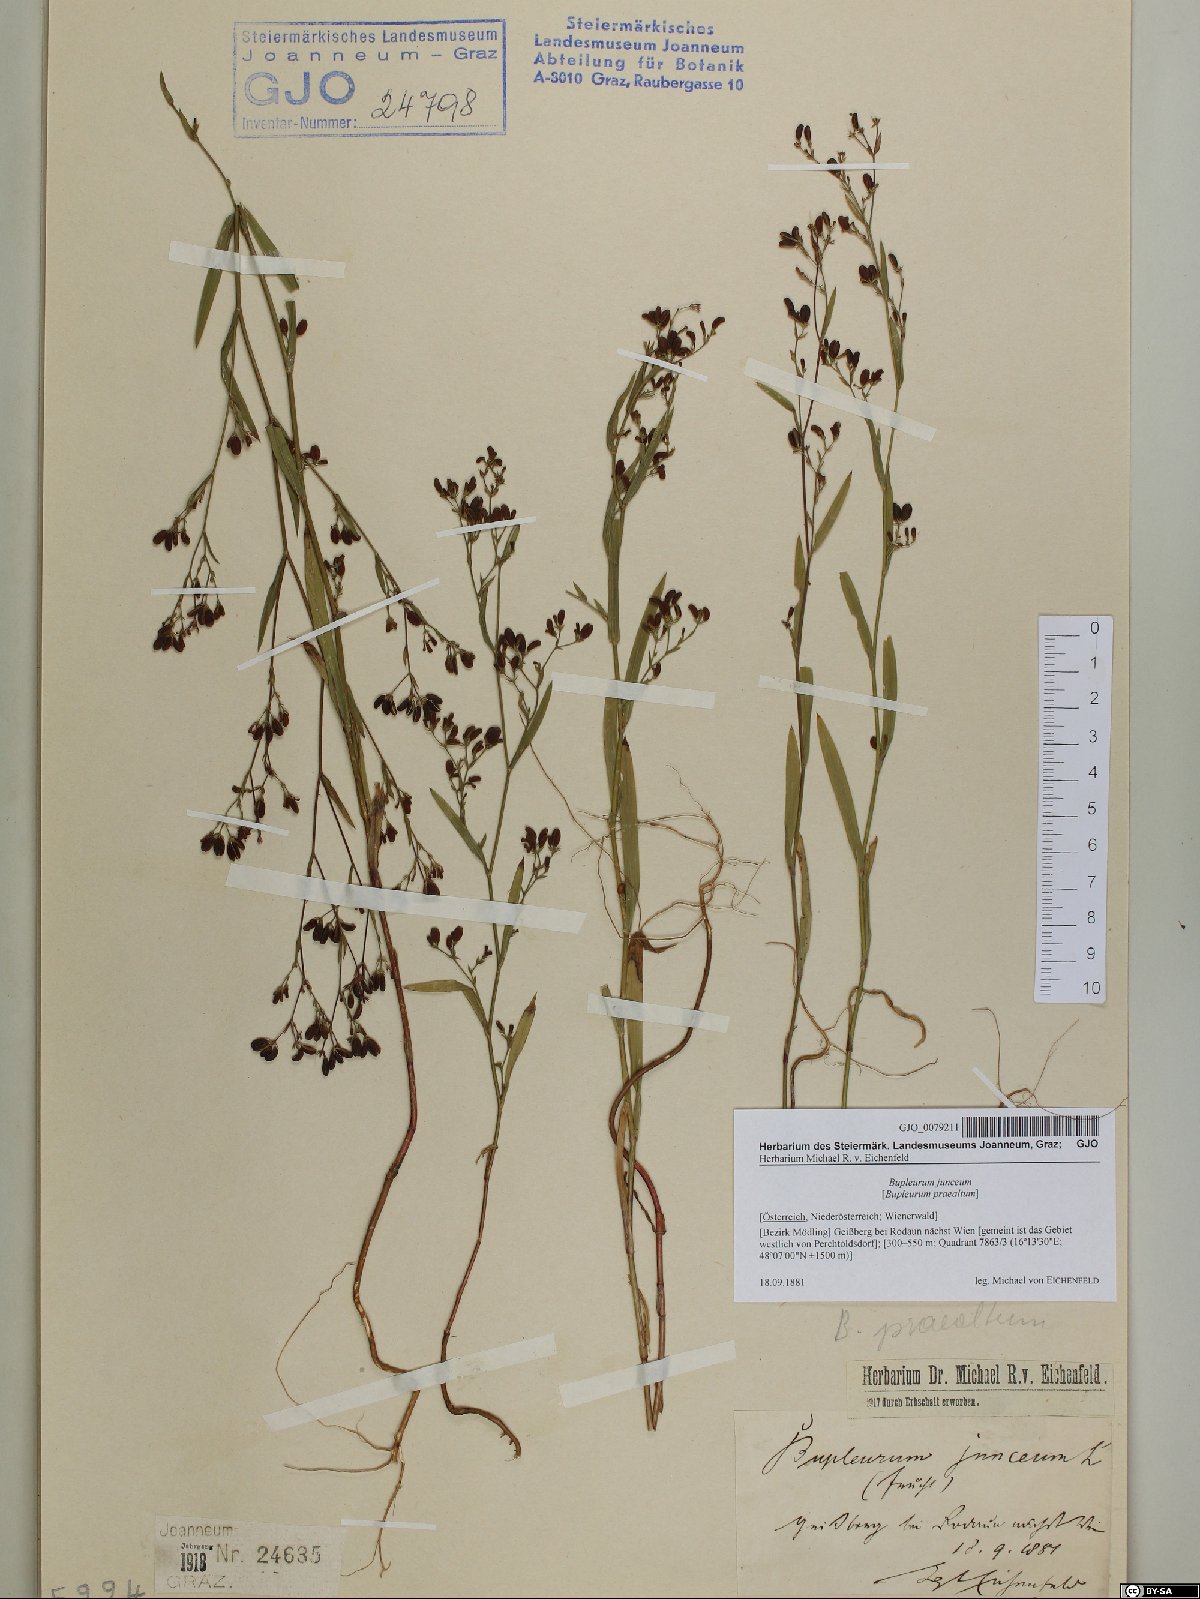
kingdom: Plantae
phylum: Tracheophyta
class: Magnoliopsida
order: Apiales
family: Apiaceae
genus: Bupleurum
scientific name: Bupleurum praealtum
